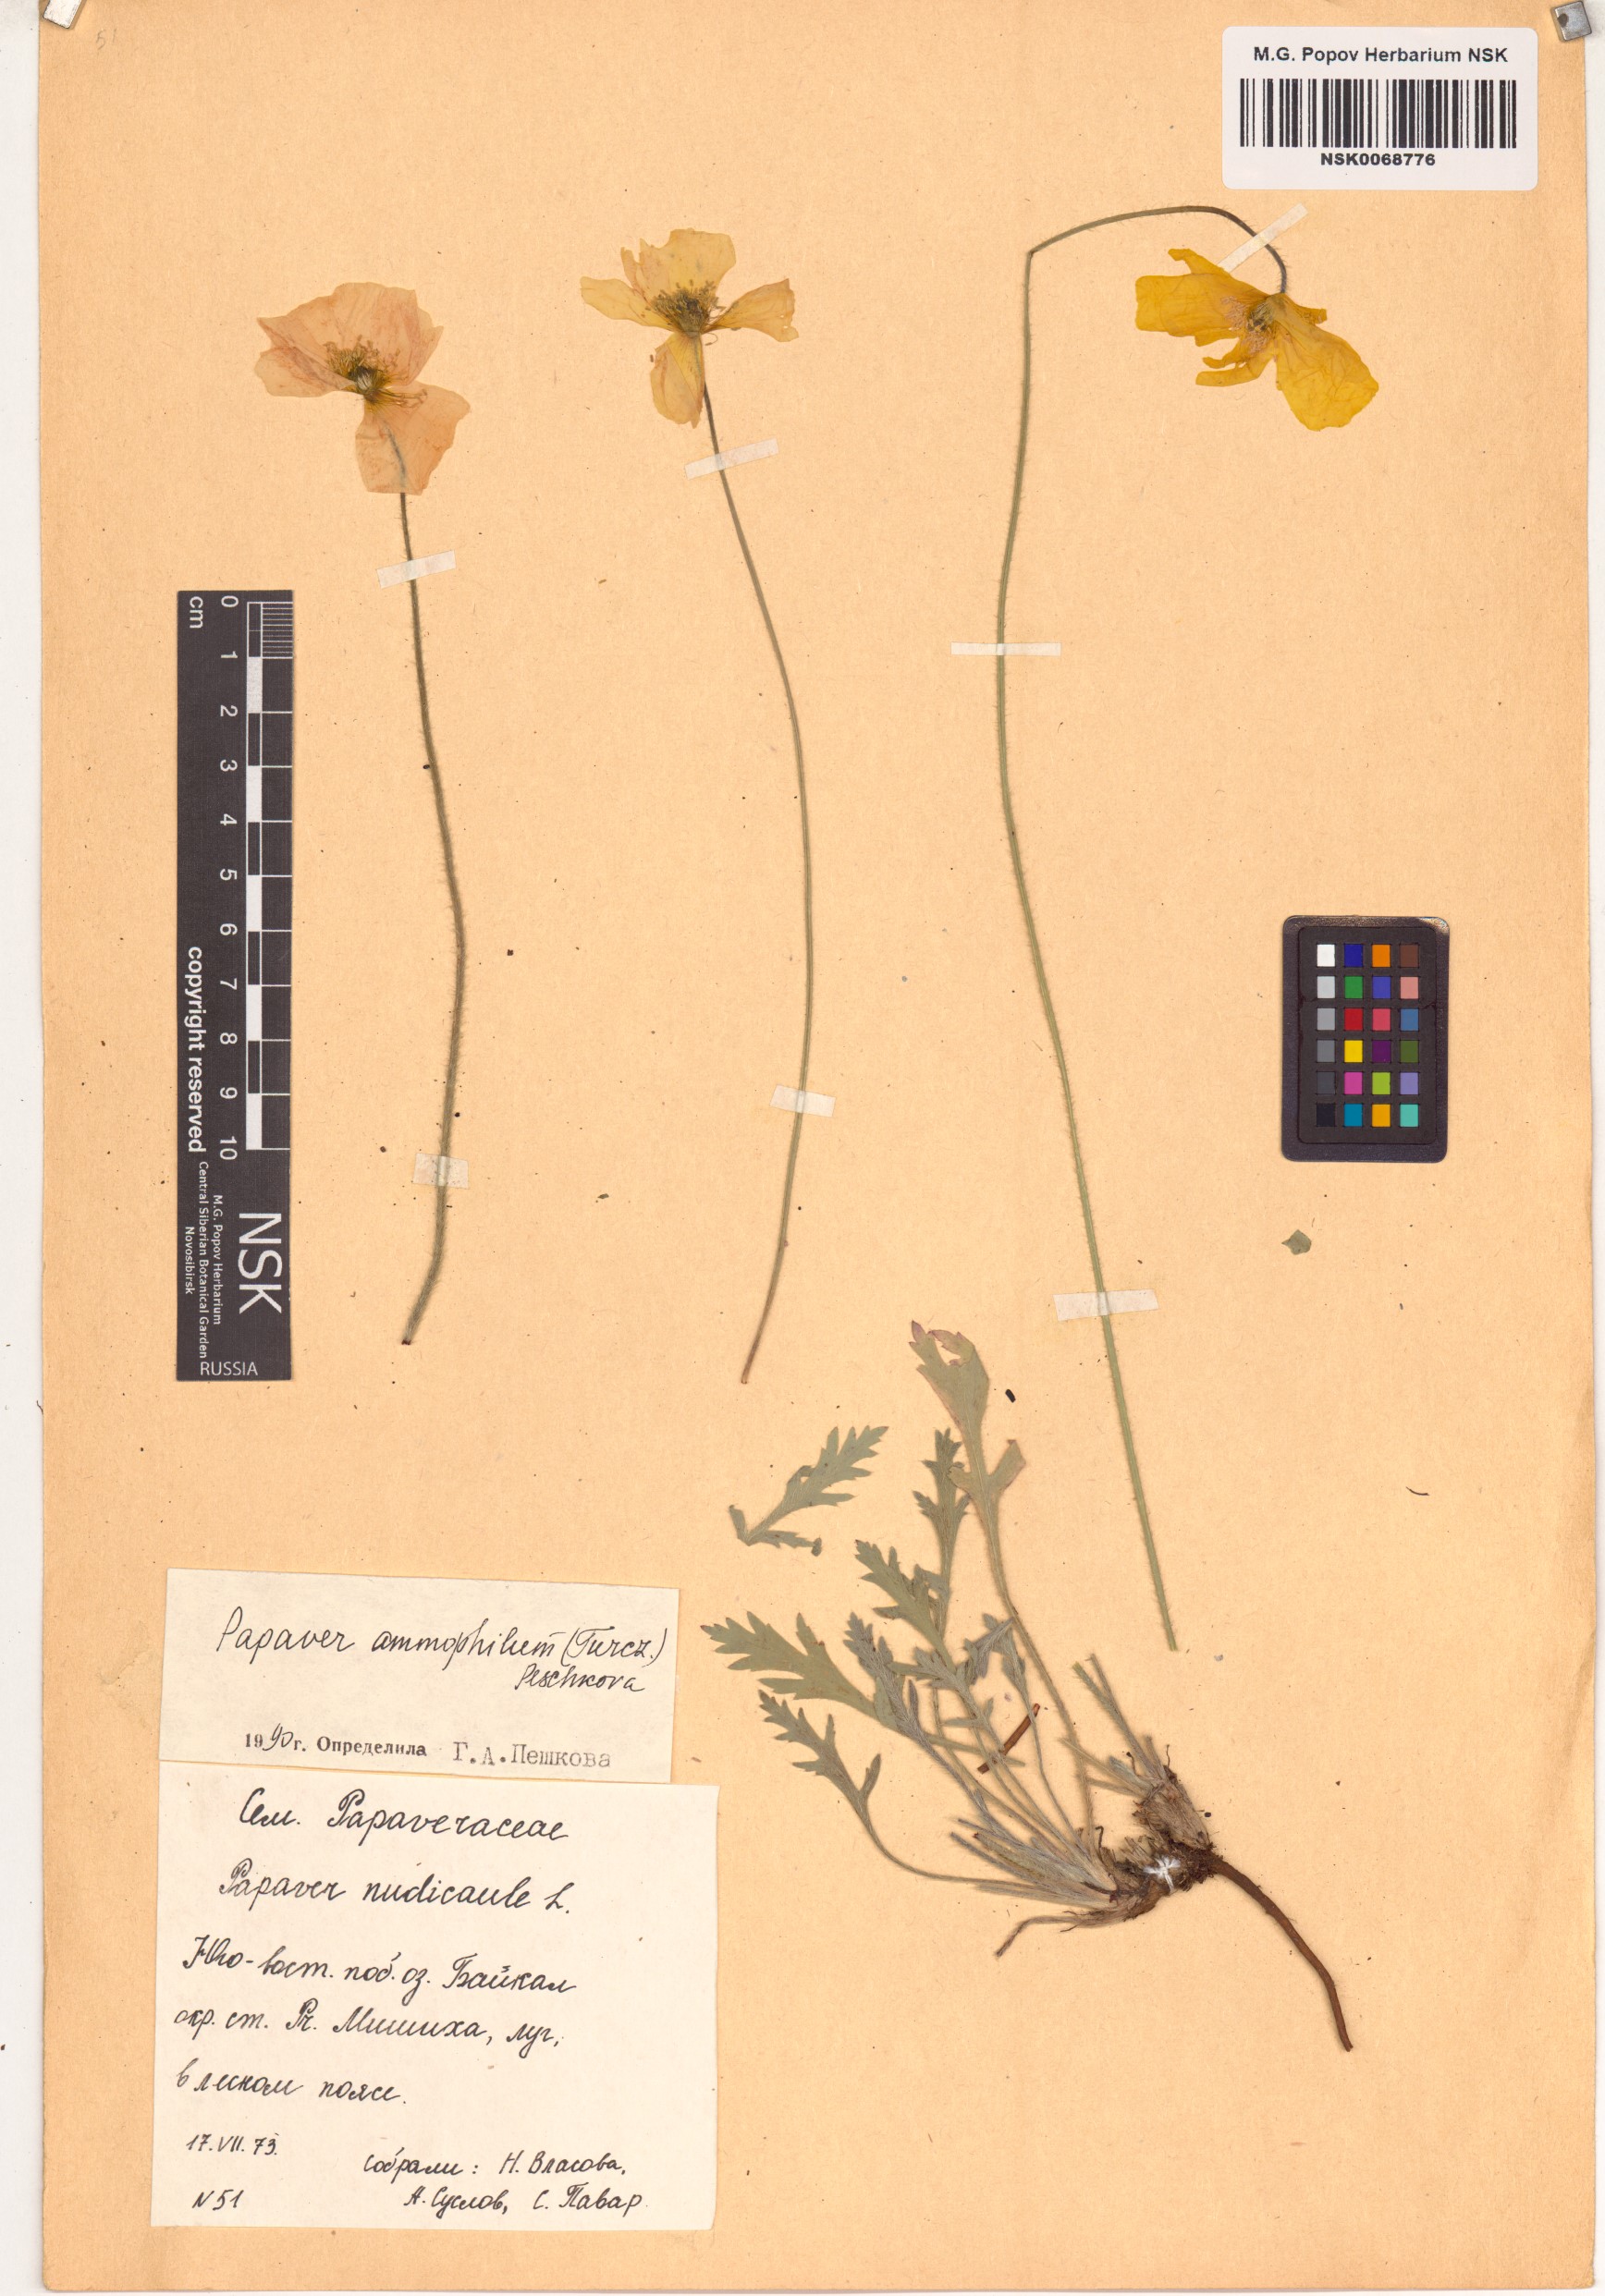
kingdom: Plantae
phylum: Tracheophyta
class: Magnoliopsida
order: Ranunculales
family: Papaveraceae
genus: Papaver
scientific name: Papaver nudicaule
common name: Arctic poppy
